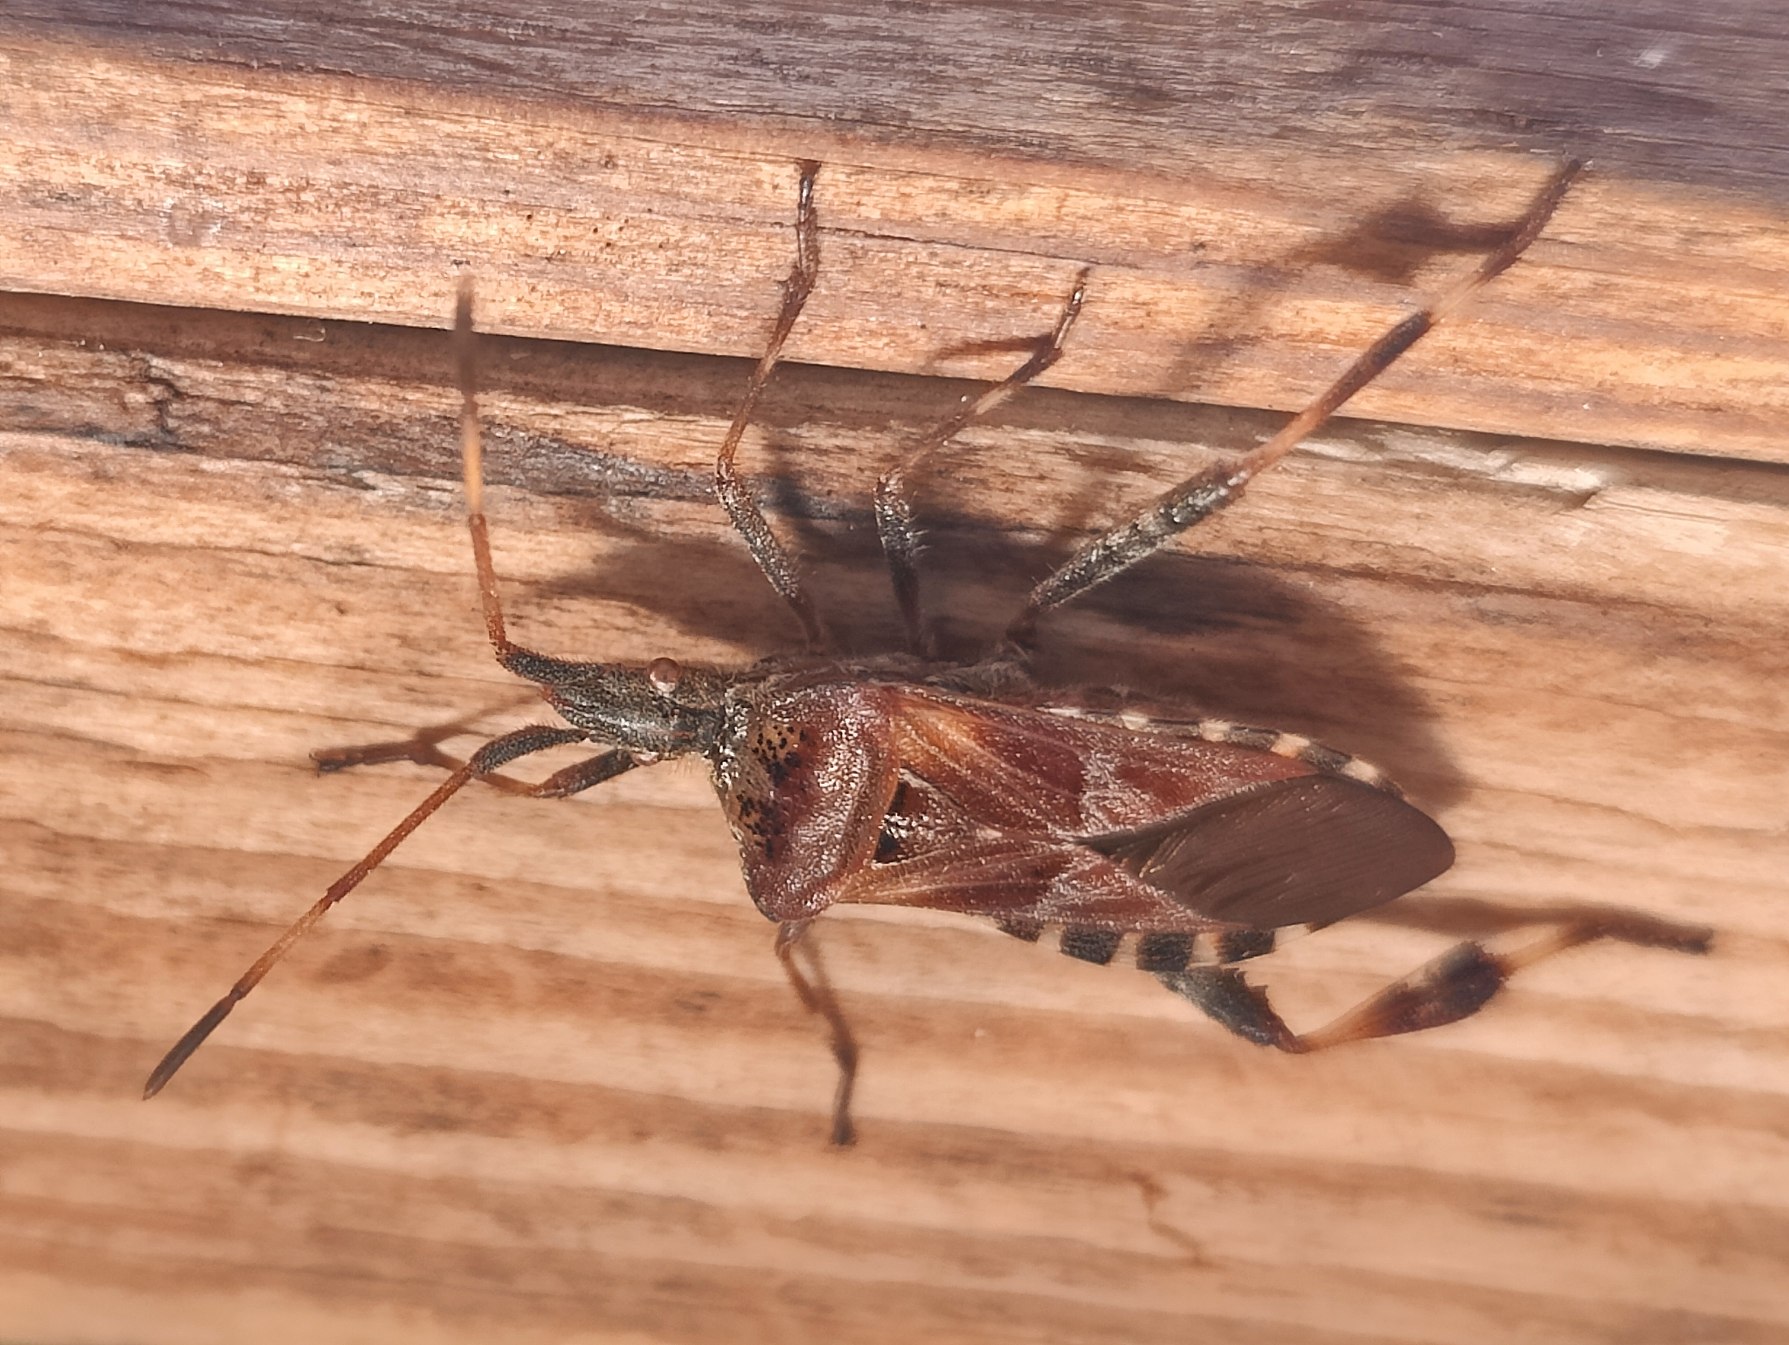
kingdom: Animalia
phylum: Arthropoda
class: Insecta
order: Hemiptera
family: Coreidae
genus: Leptoglossus
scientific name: Leptoglossus occidentalis
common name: Amerikansk fyrretæge
